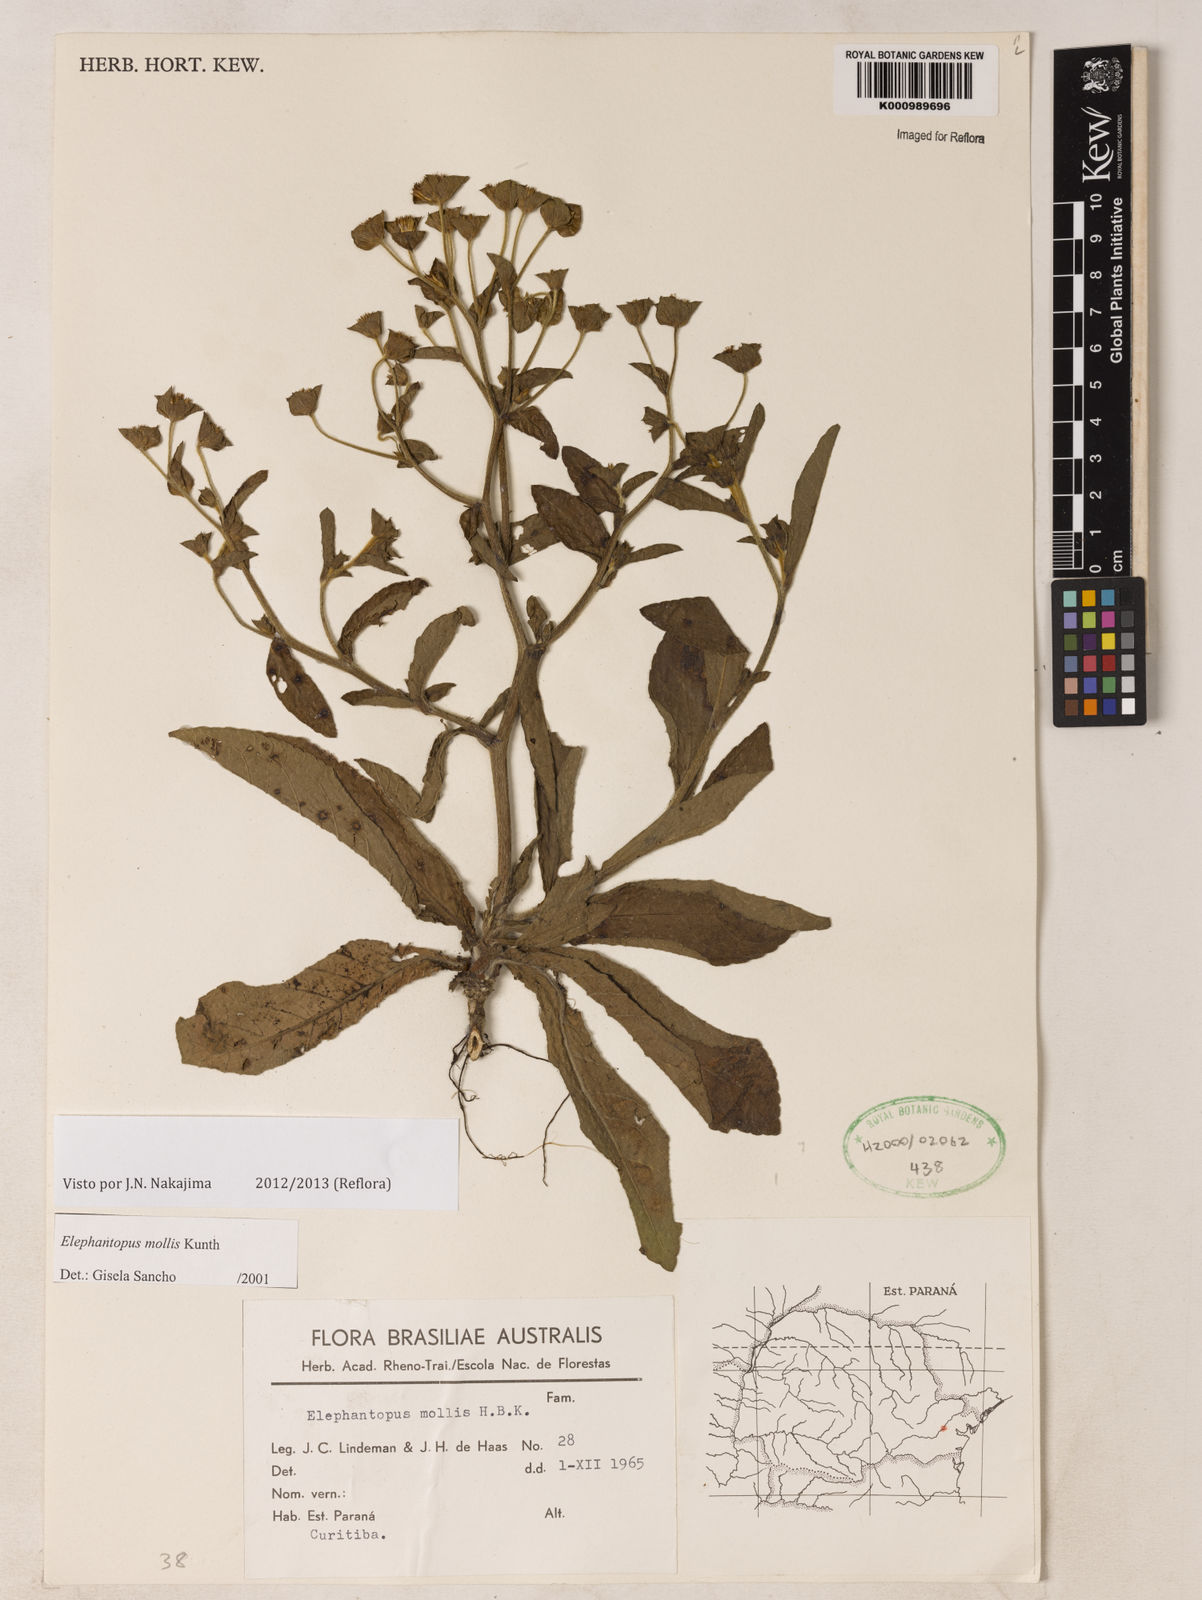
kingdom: Plantae
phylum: Tracheophyta
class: Magnoliopsida
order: Asterales
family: Asteraceae
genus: Elephantopus
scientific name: Elephantopus mollis
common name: Soft elephantsfoot
